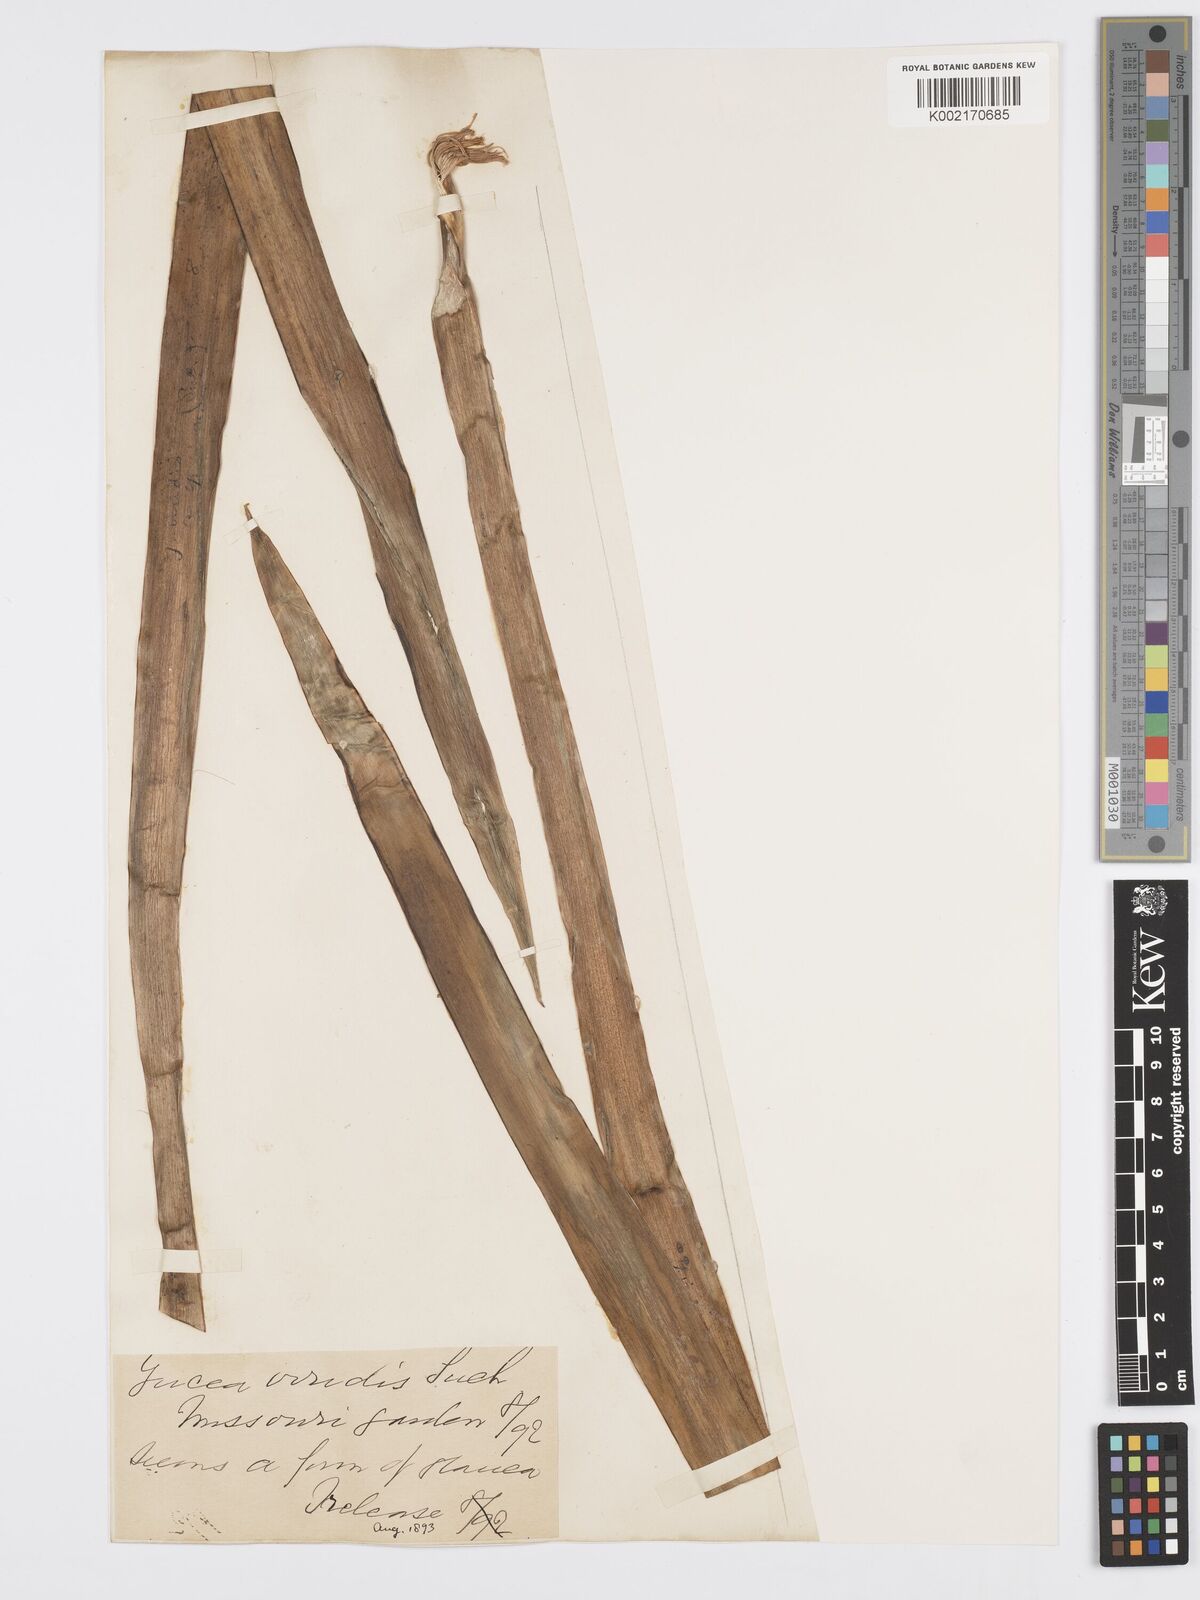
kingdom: Plantae
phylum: Tracheophyta
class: Liliopsida
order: Asparagales
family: Asparagaceae
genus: Yucca
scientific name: Yucca
